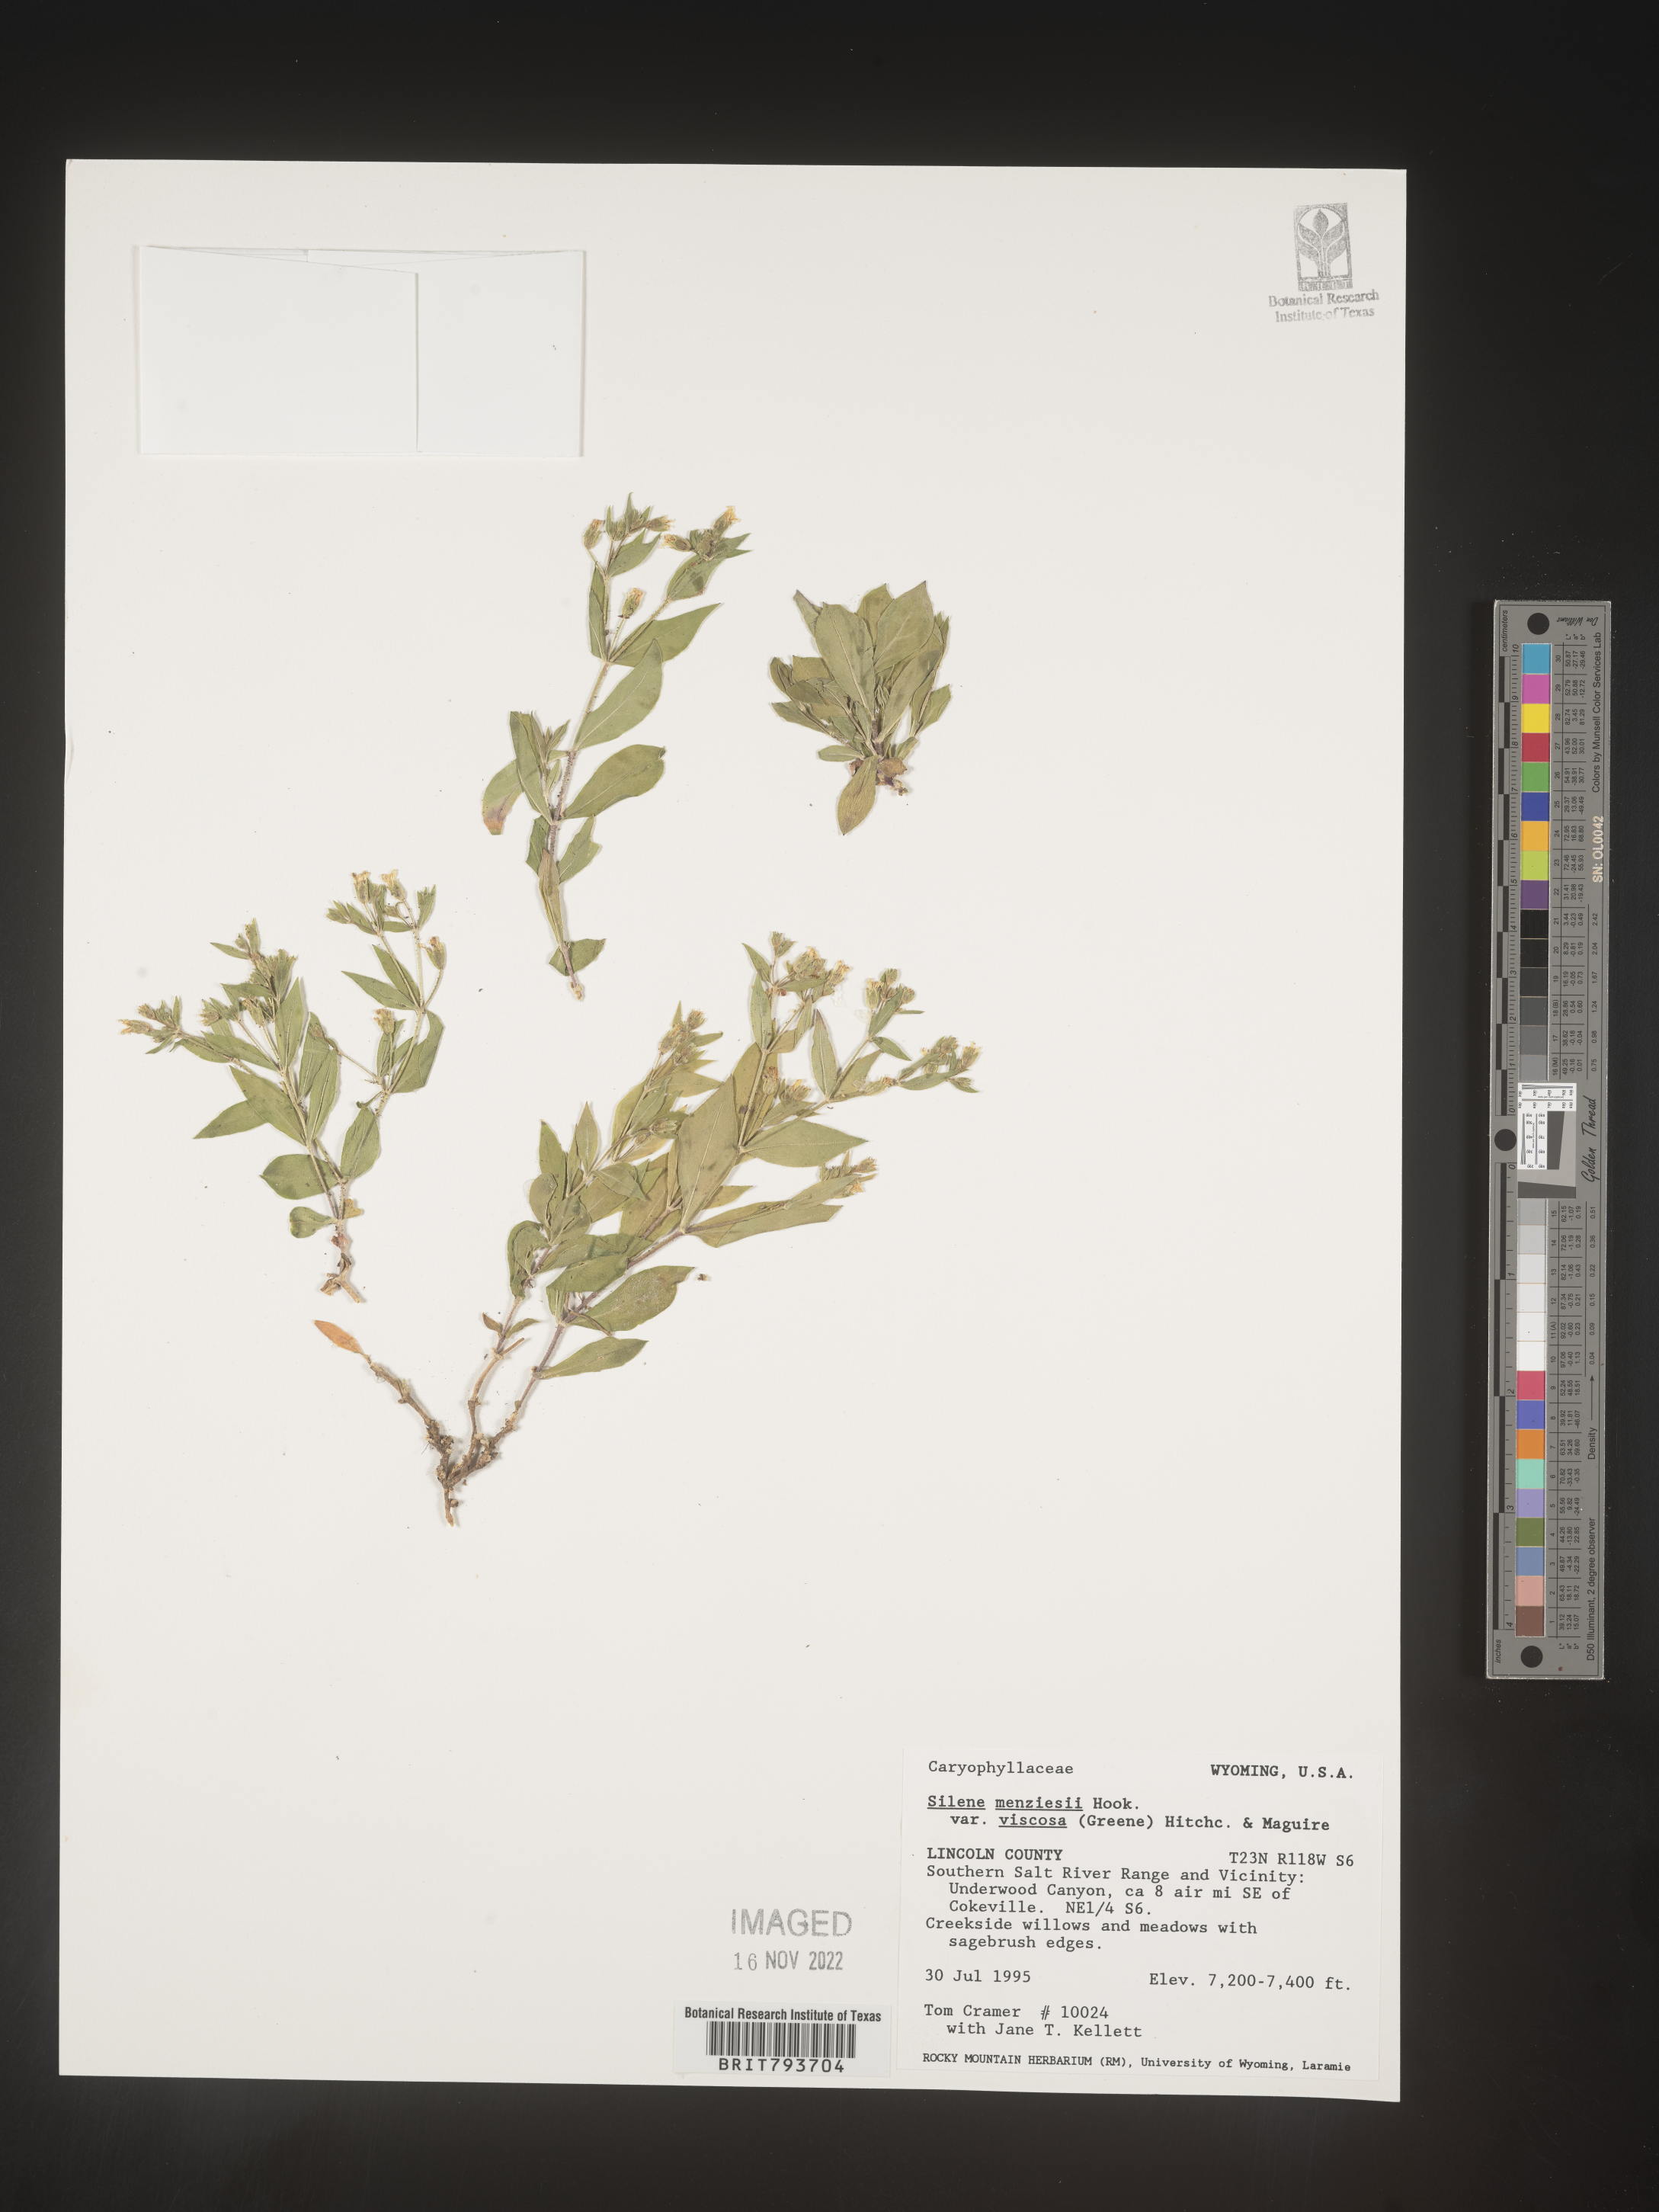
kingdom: Plantae
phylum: Tracheophyta
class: Magnoliopsida
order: Caryophyllales
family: Caryophyllaceae
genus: Silene
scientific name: Silene menziesii
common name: Menzies's catchfly
